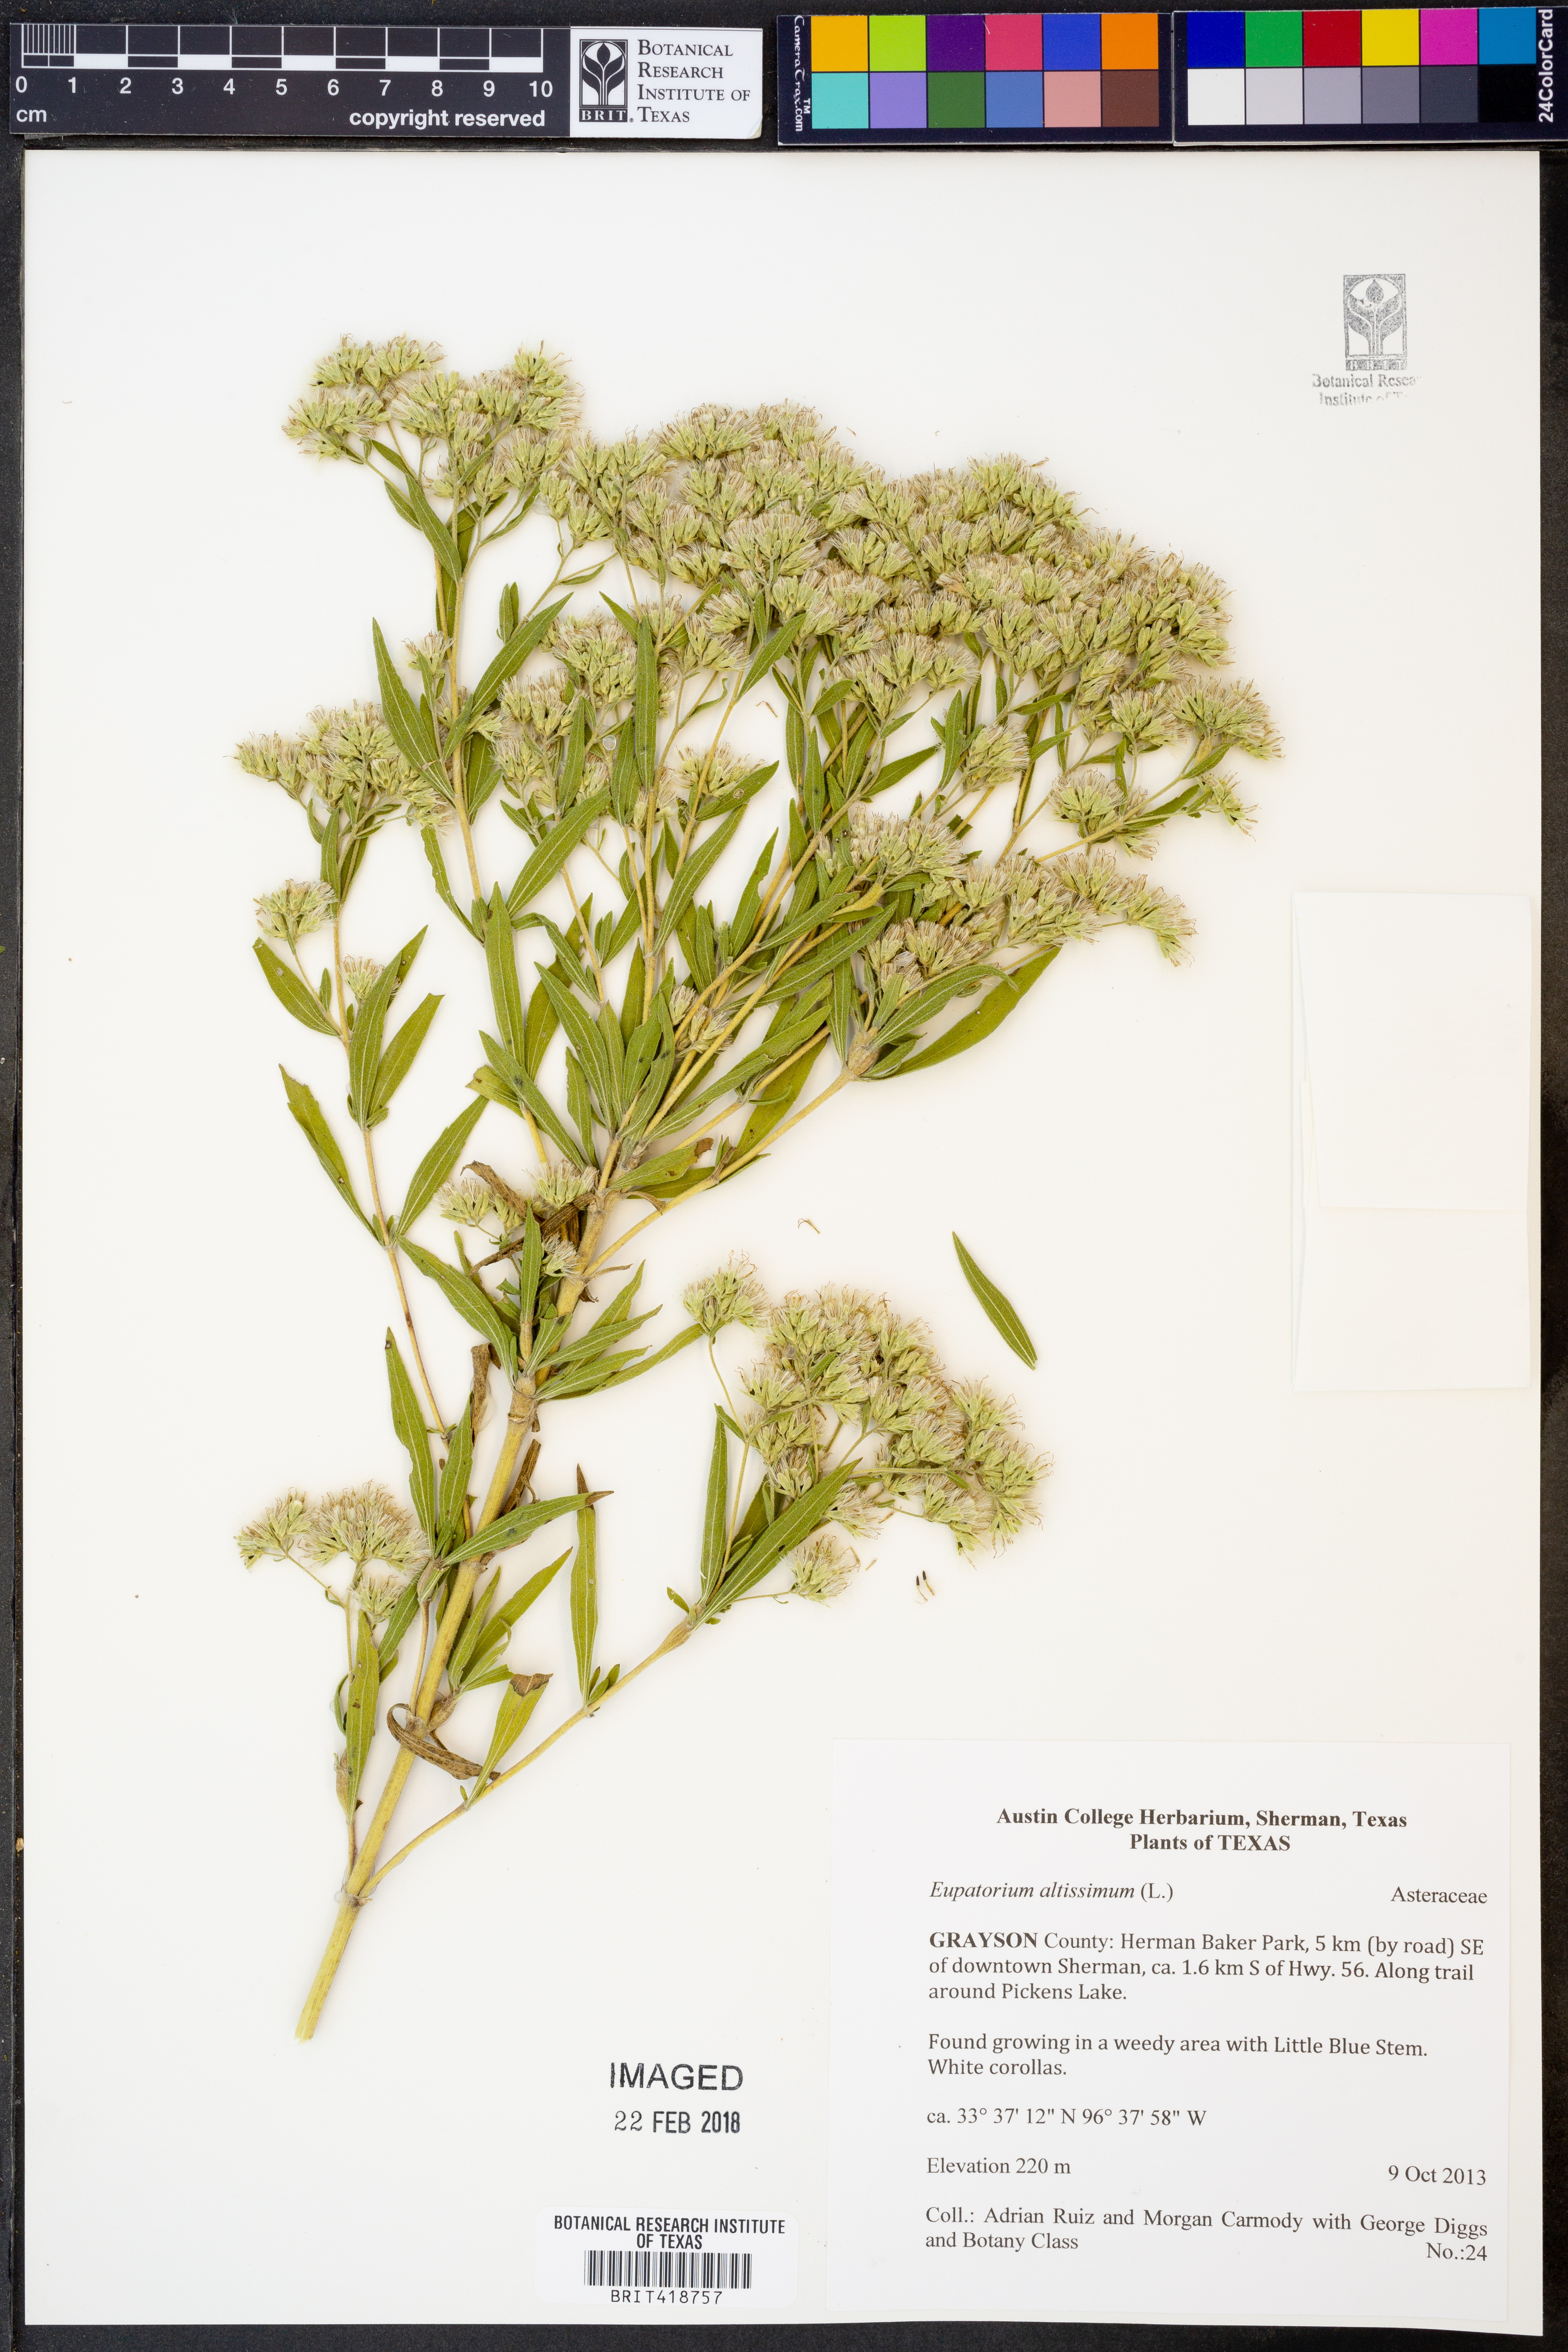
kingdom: Plantae
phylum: Tracheophyta
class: Magnoliopsida
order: Asterales
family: Asteraceae
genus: Eupatorium
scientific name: Eupatorium altissimum
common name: Tall thoroughwort
